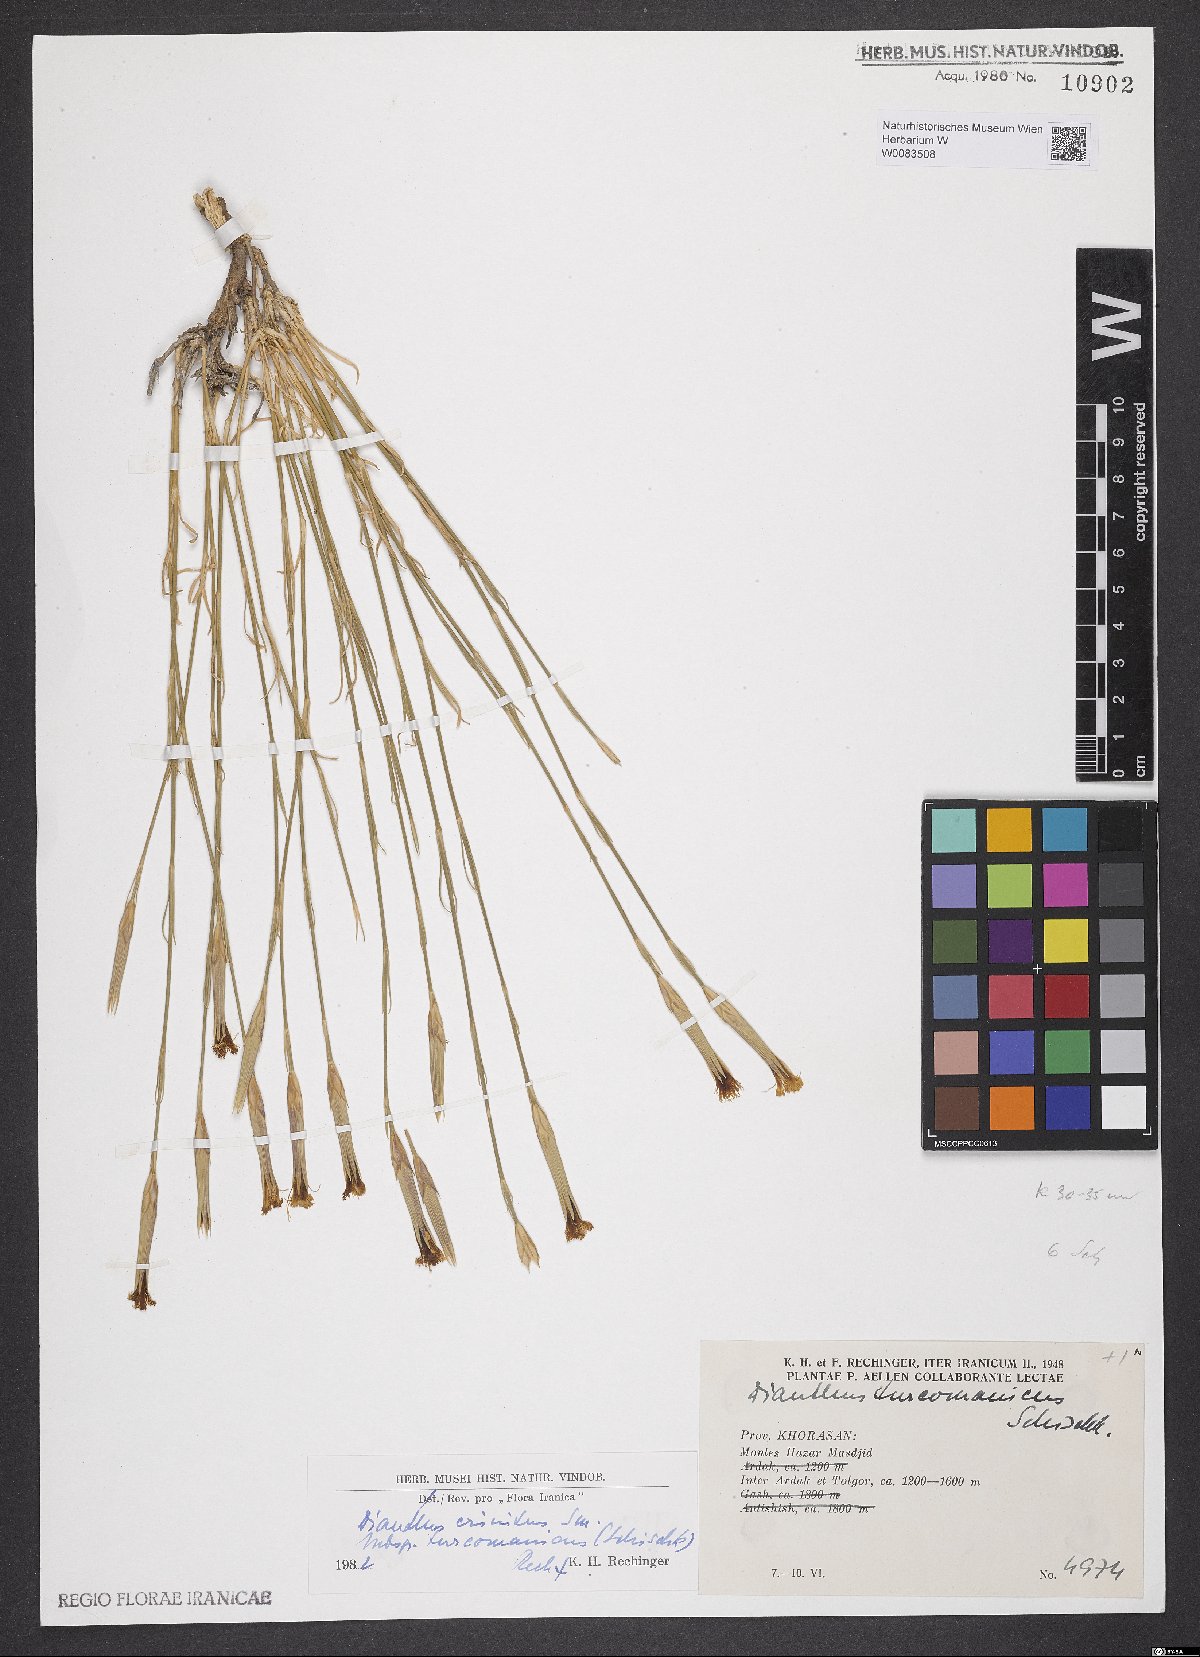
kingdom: Plantae
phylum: Tracheophyta
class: Magnoliopsida
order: Caryophyllales
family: Caryophyllaceae
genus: Dianthus
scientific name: Dianthus turkestanicus
